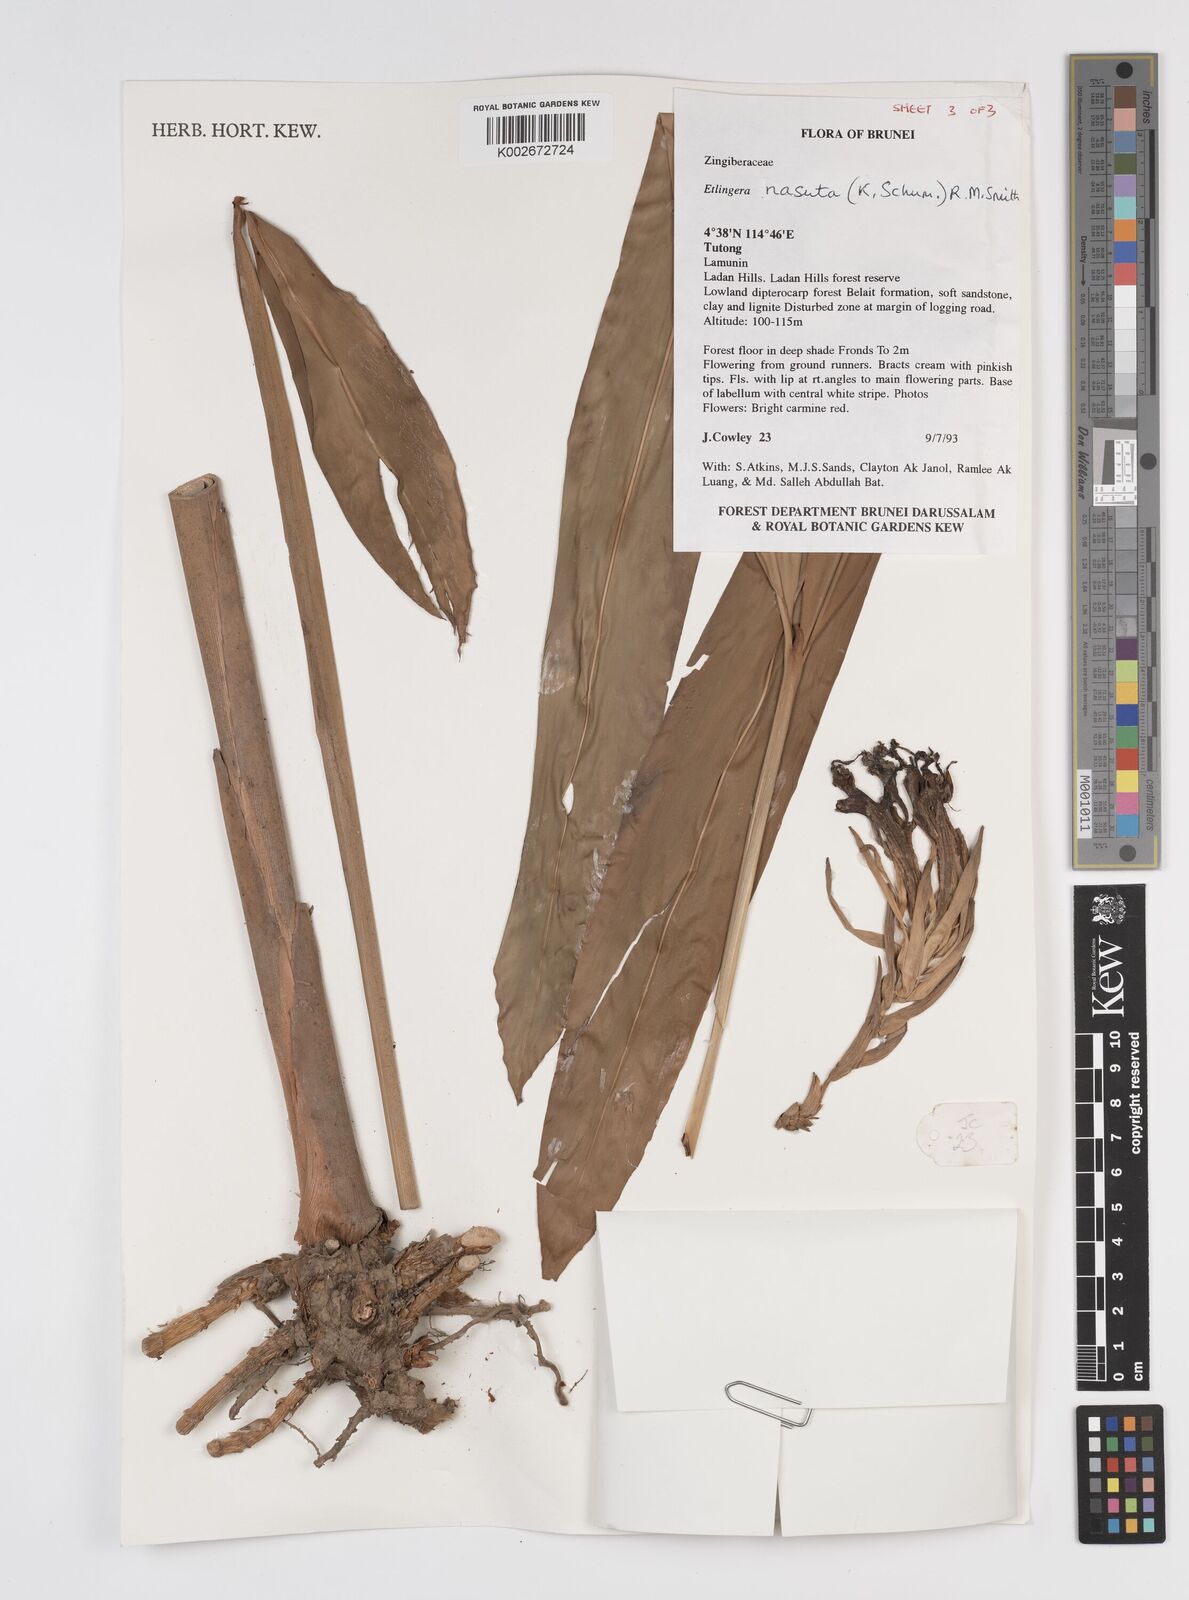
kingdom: Plantae
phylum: Tracheophyta
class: Liliopsida
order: Zingiberales
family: Zingiberaceae
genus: Etlingera
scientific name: Etlingera nasuta
